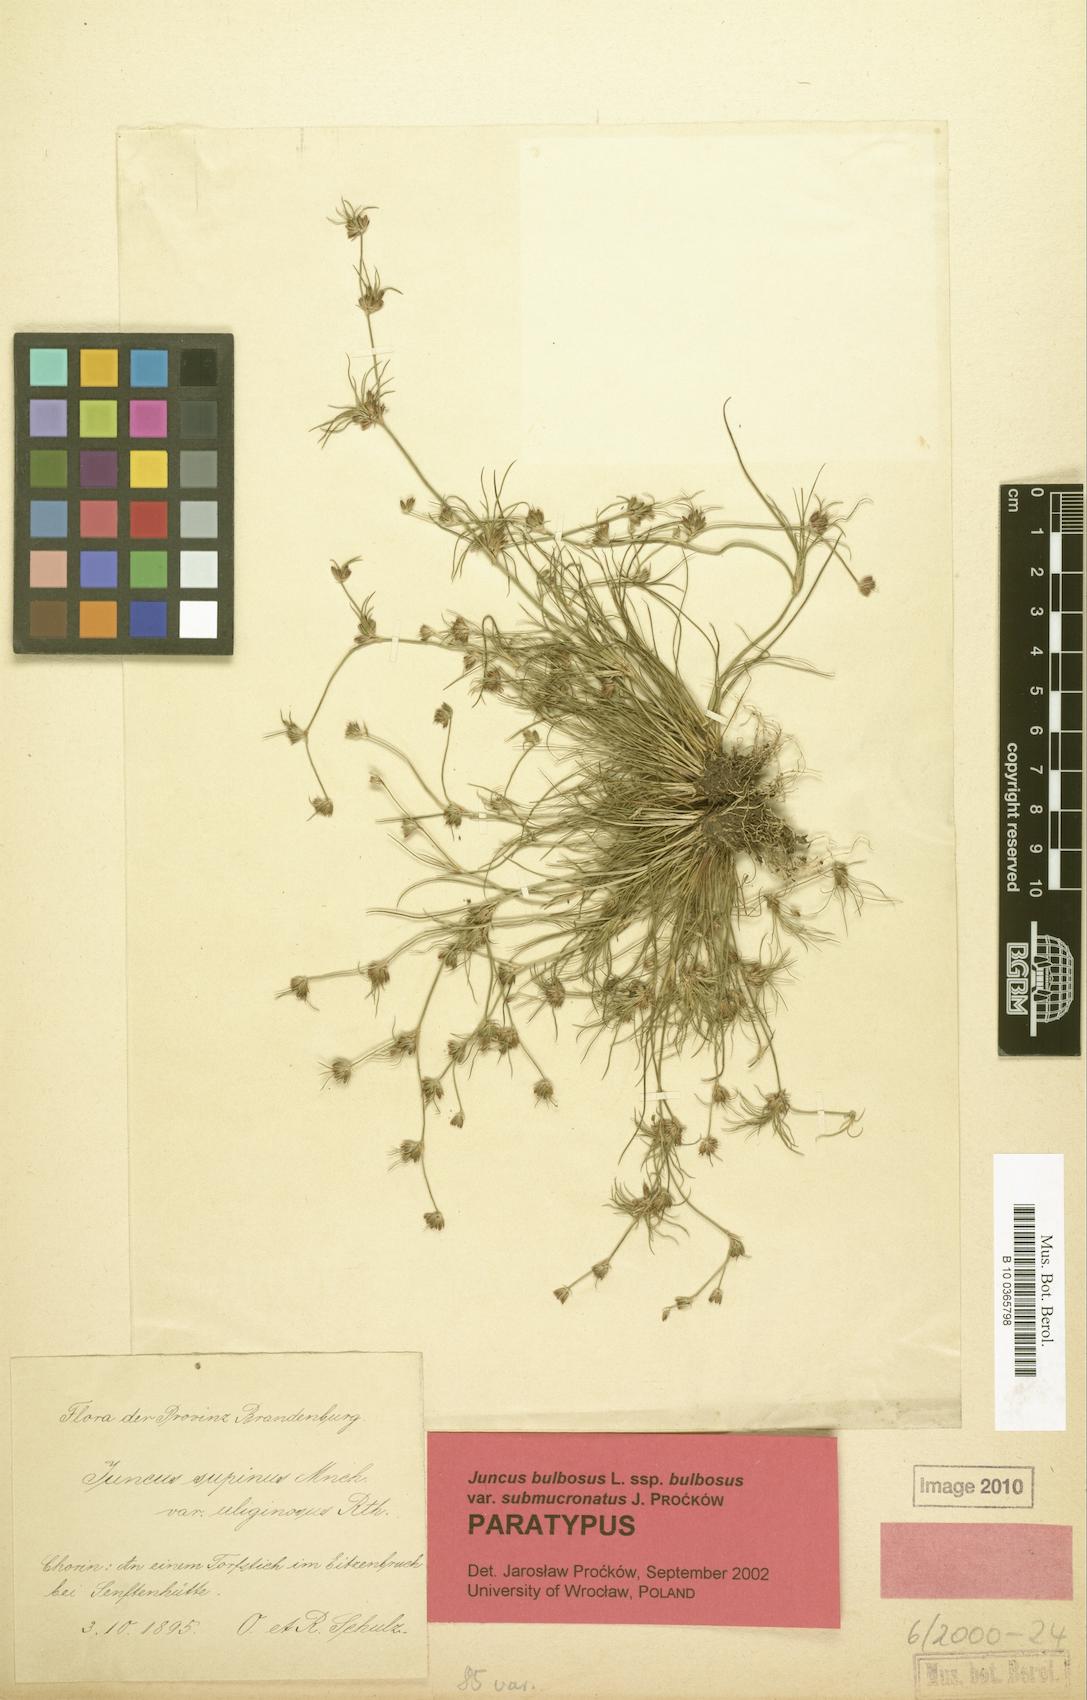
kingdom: Plantae
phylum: Tracheophyta
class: Liliopsida
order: Poales
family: Juncaceae
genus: Juncus
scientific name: Juncus bulbosus
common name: Bulbous rush
